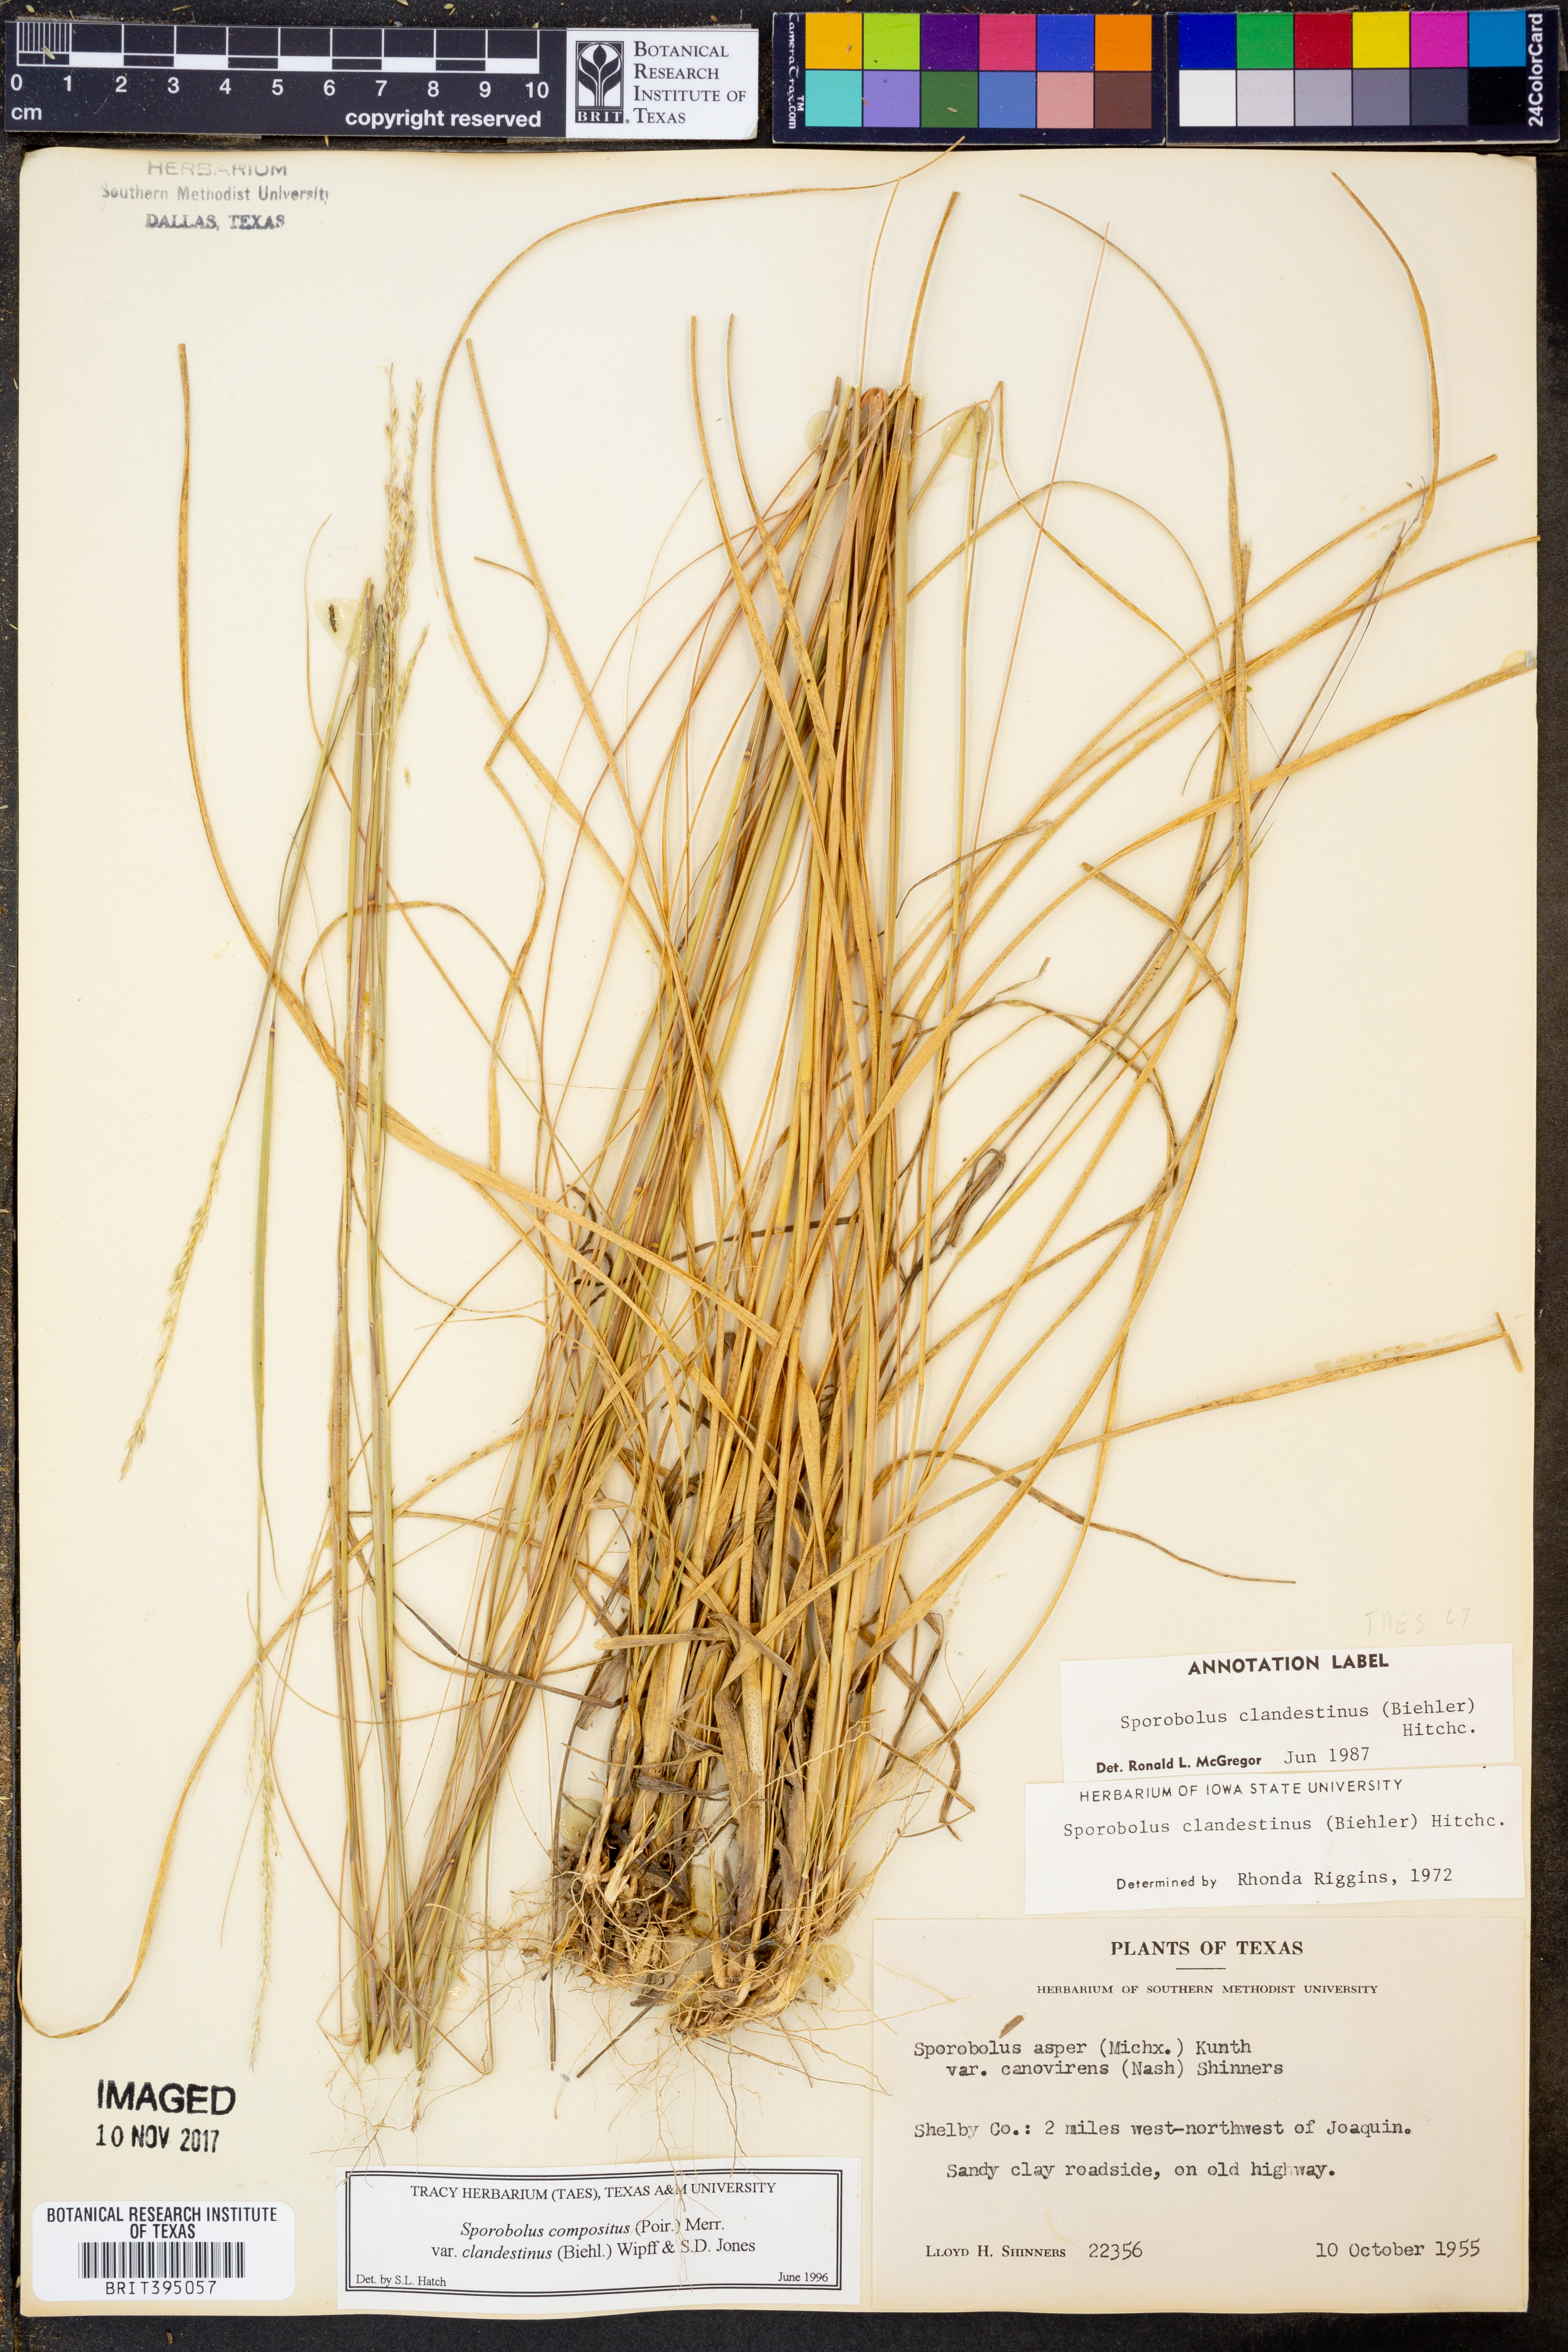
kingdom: Plantae
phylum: Tracheophyta
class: Liliopsida
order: Poales
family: Poaceae
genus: Sporobolus
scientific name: Sporobolus clandestinus
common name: Hidden dropseed
